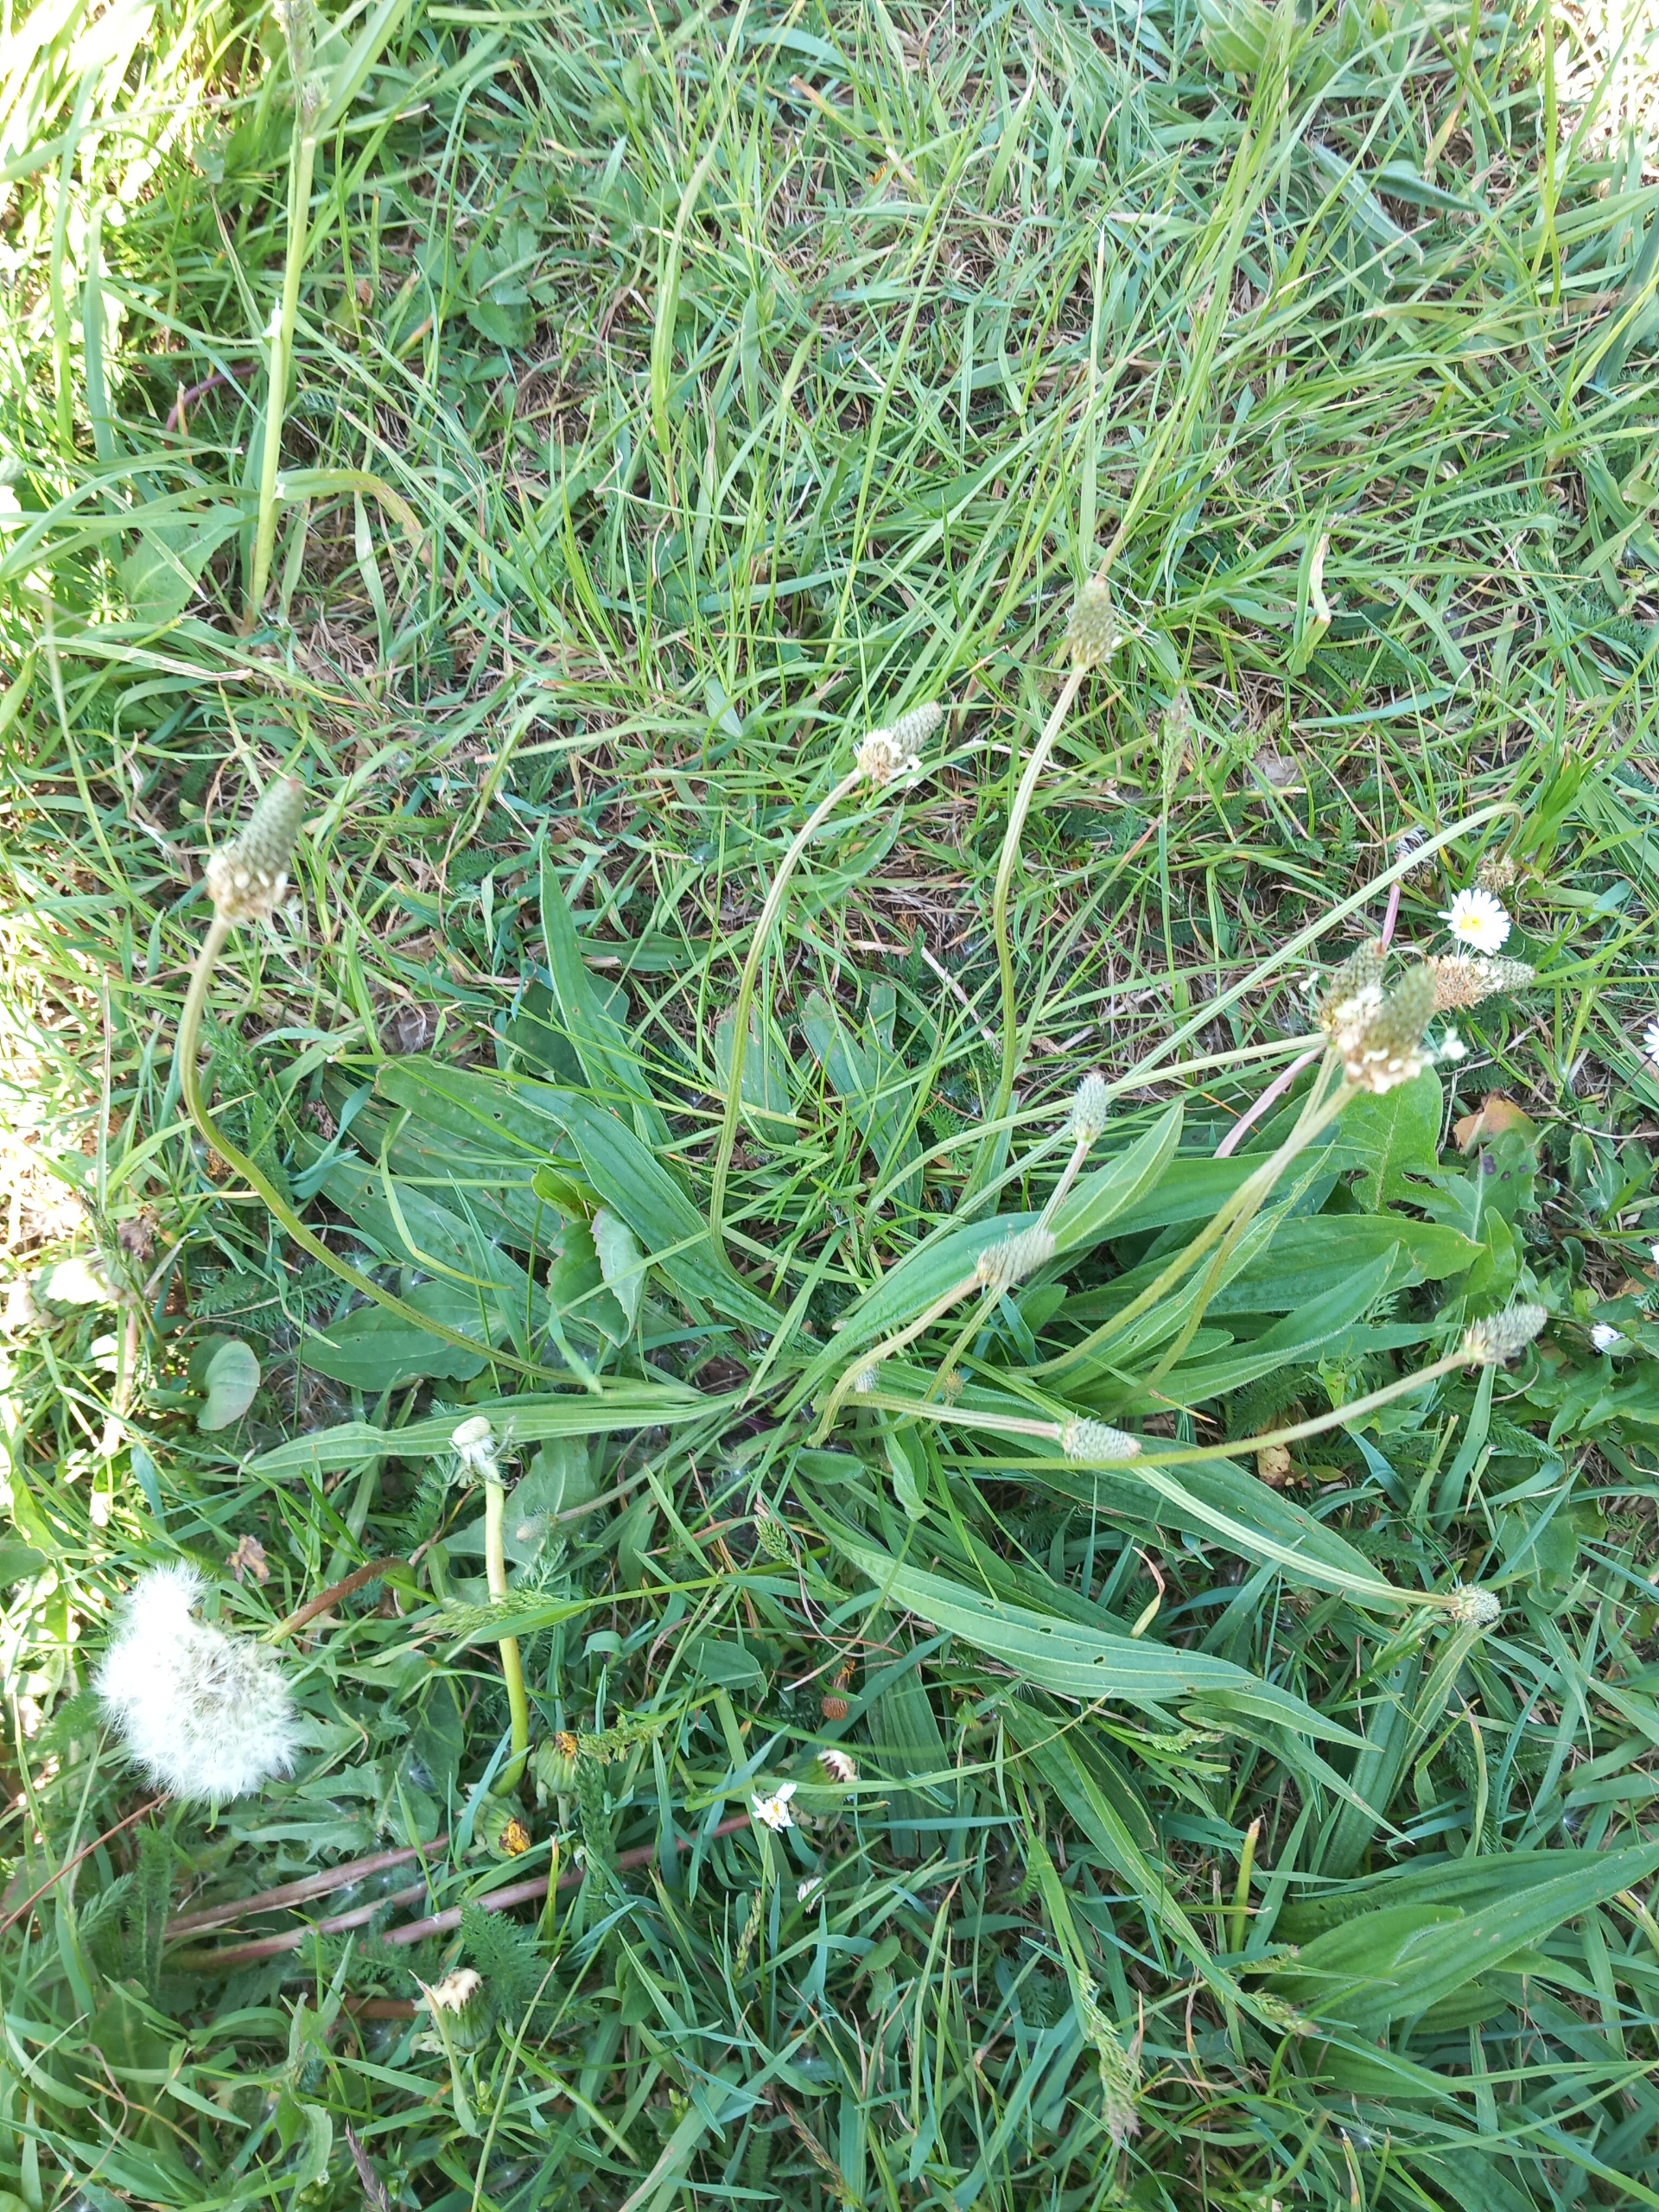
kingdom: Plantae
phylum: Tracheophyta
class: Magnoliopsida
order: Lamiales
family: Plantaginaceae
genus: Plantago
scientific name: Plantago lanceolata
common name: Lancet-vejbred
